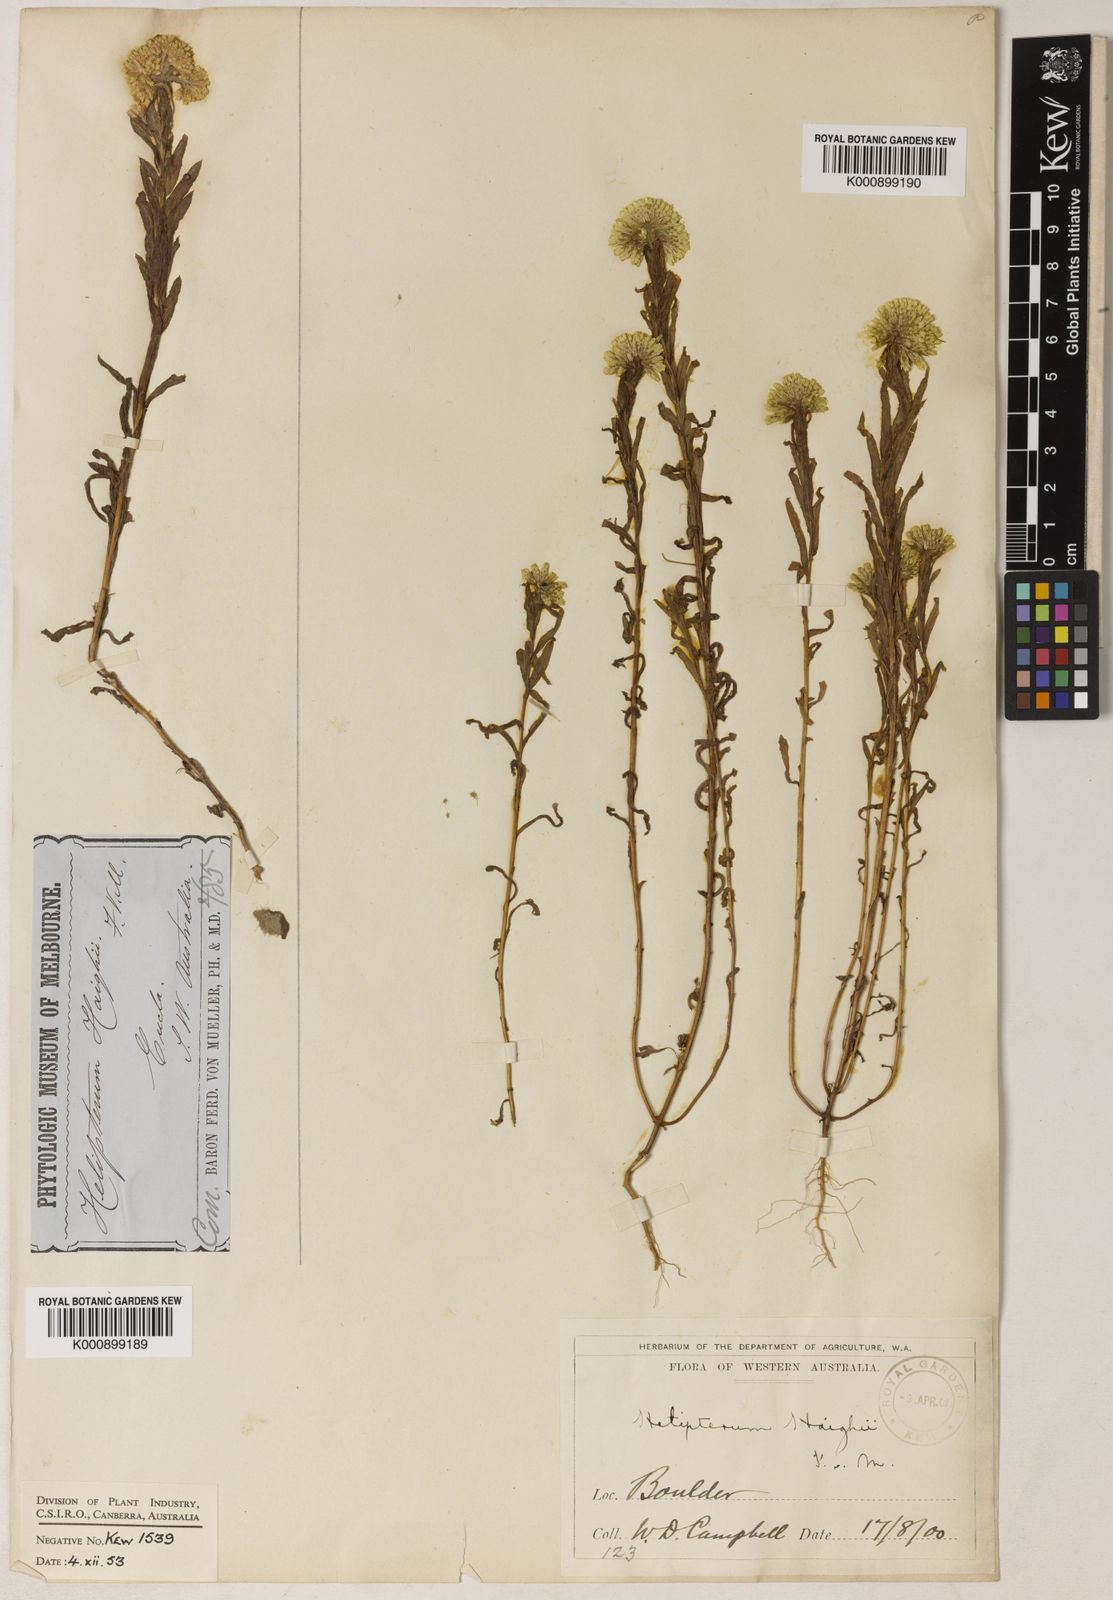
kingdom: Plantae
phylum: Tracheophyta
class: Magnoliopsida
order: Asterales
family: Asteraceae
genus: Rhodanthe
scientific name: Rhodanthe haigii
